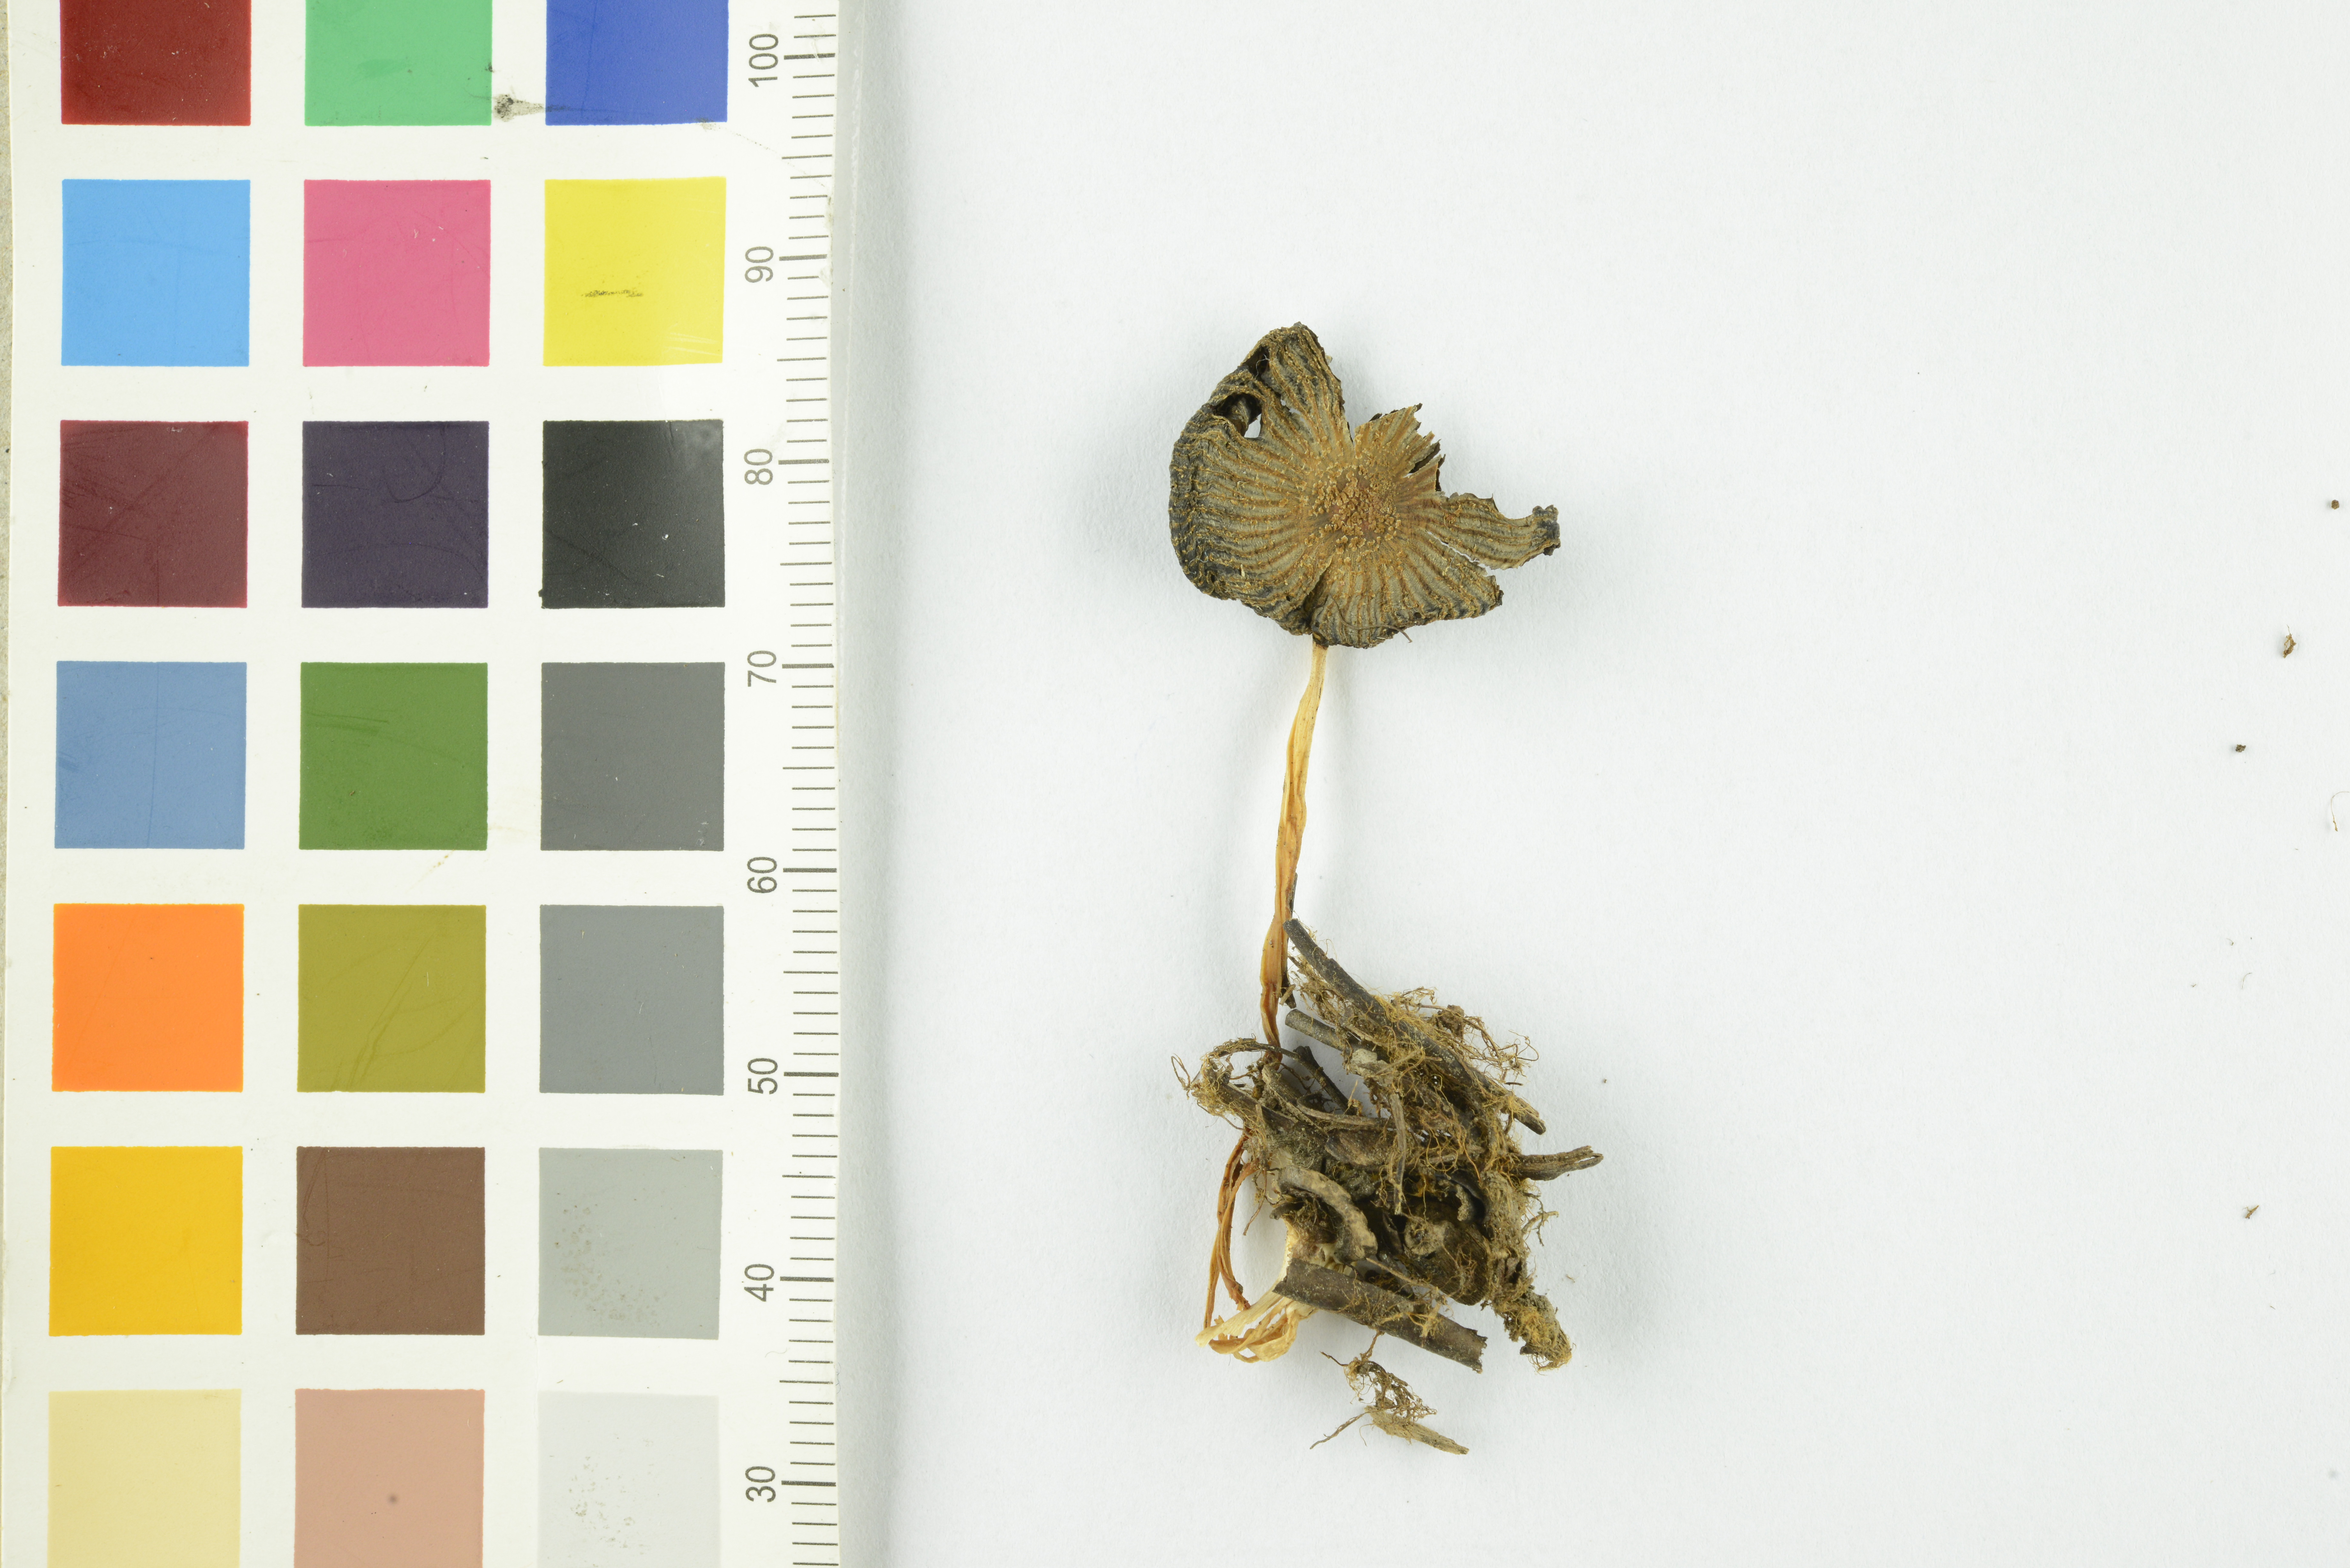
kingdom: Fungi
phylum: Basidiomycota
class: Agaricomycetes
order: Agaricales
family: Psathyrellaceae
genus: Coprinellus
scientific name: Coprinellus xanthothrix
